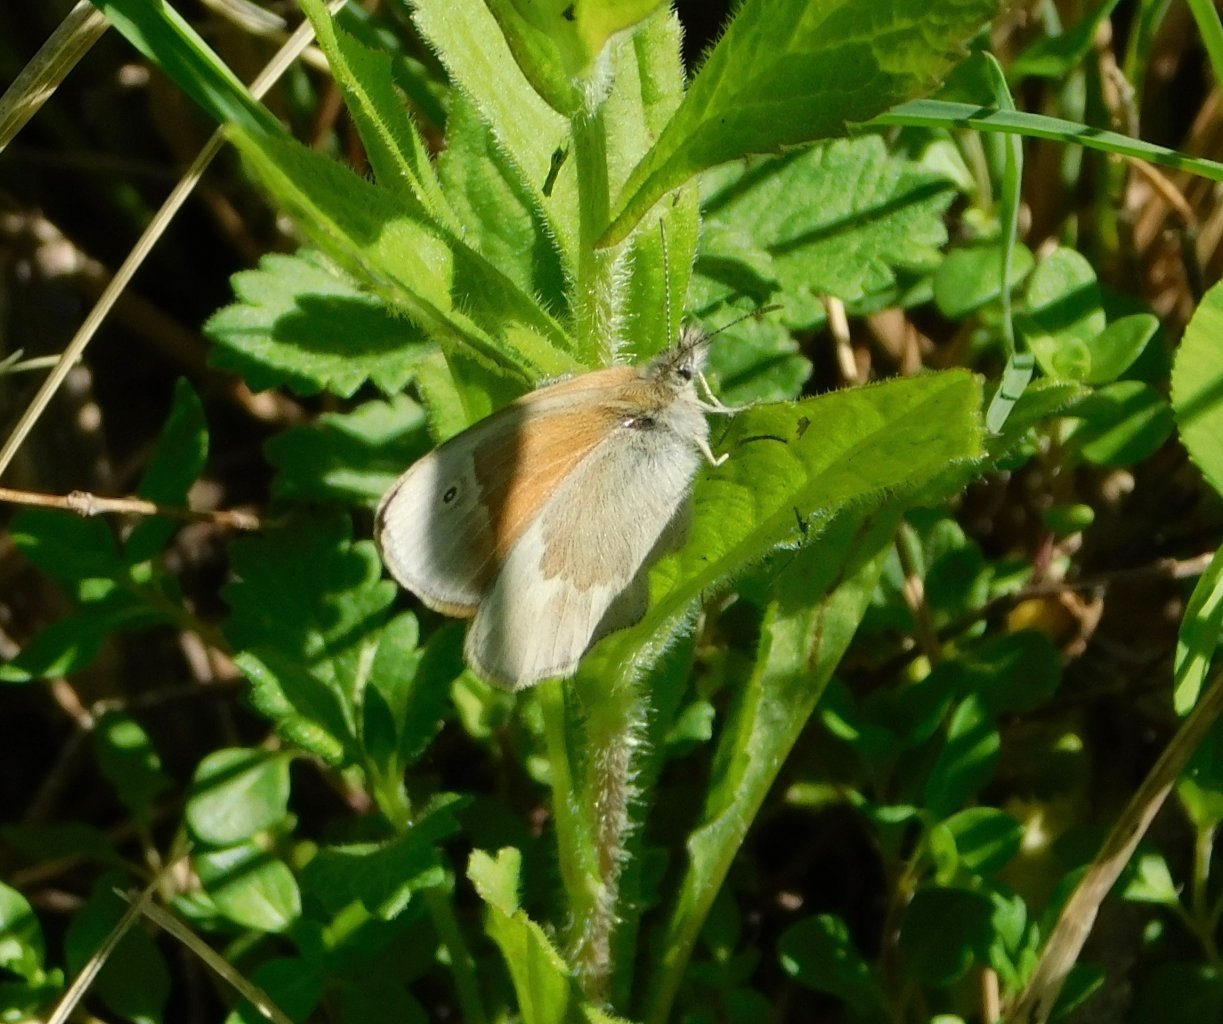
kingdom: Animalia
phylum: Arthropoda
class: Insecta
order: Lepidoptera
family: Nymphalidae
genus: Coenonympha
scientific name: Coenonympha tullia
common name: Large Heath
